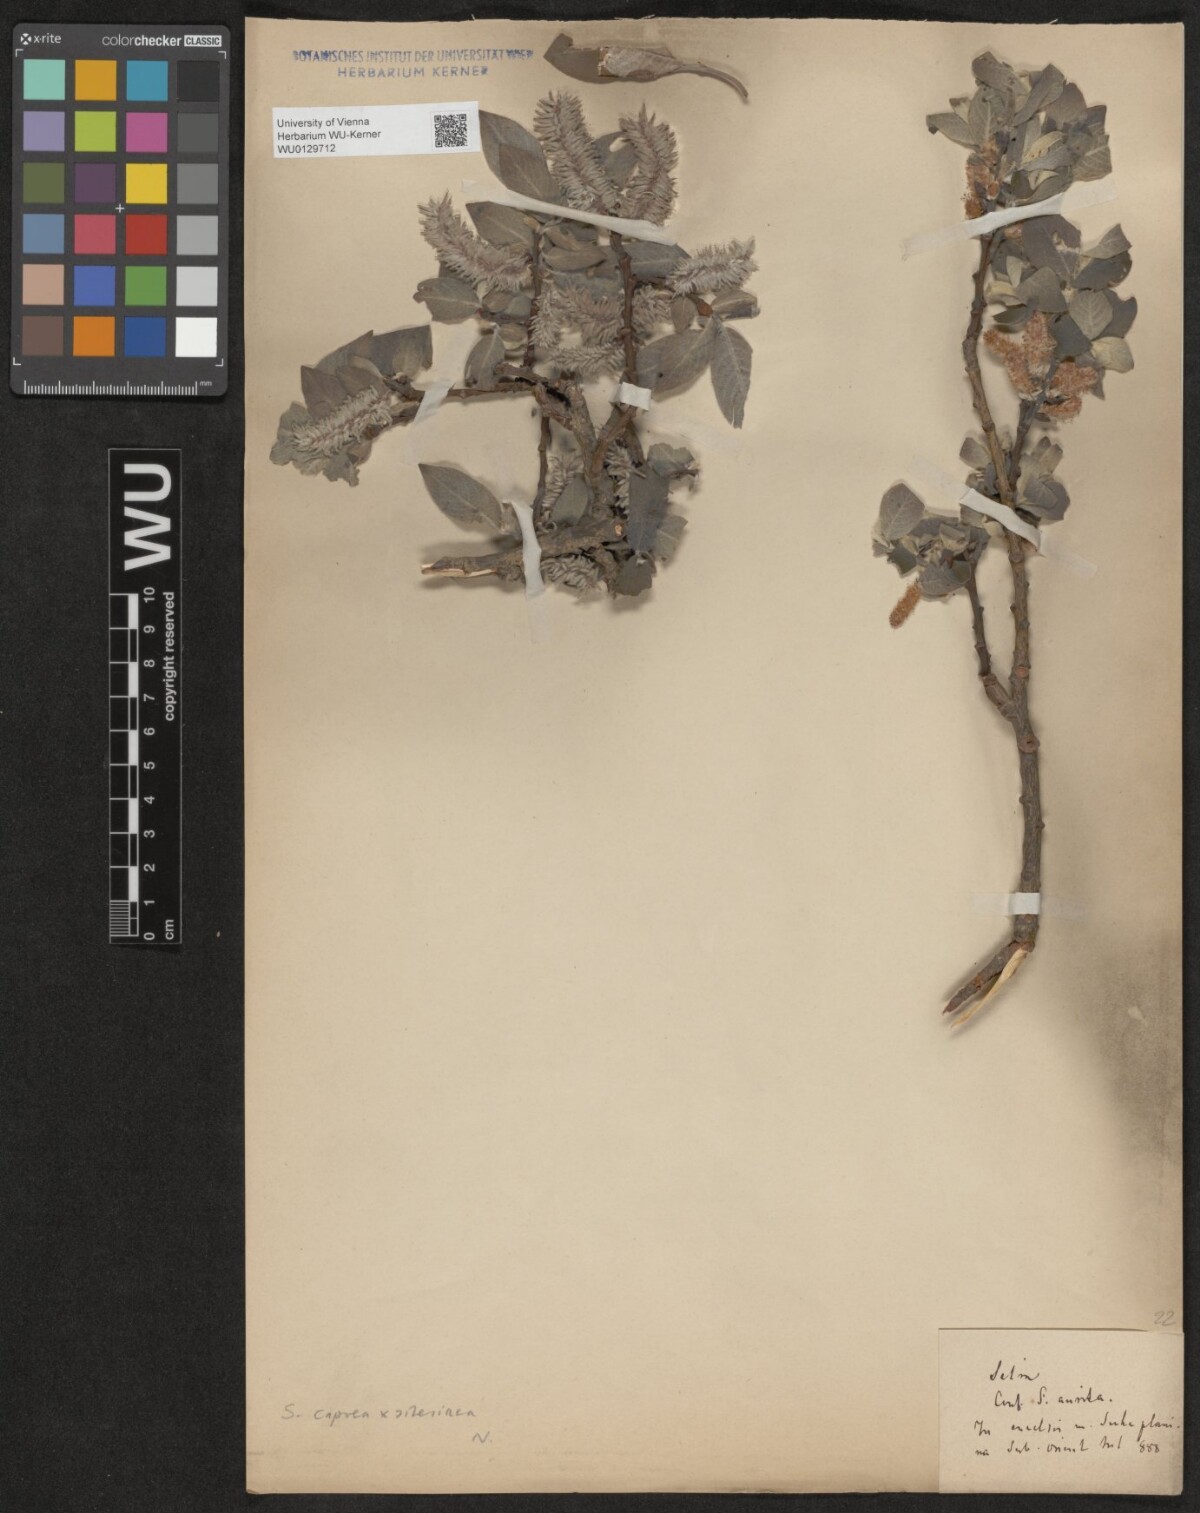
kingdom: Plantae
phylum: Tracheophyta
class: Magnoliopsida
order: Malpighiales
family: Salicaceae
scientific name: Salicaceae
